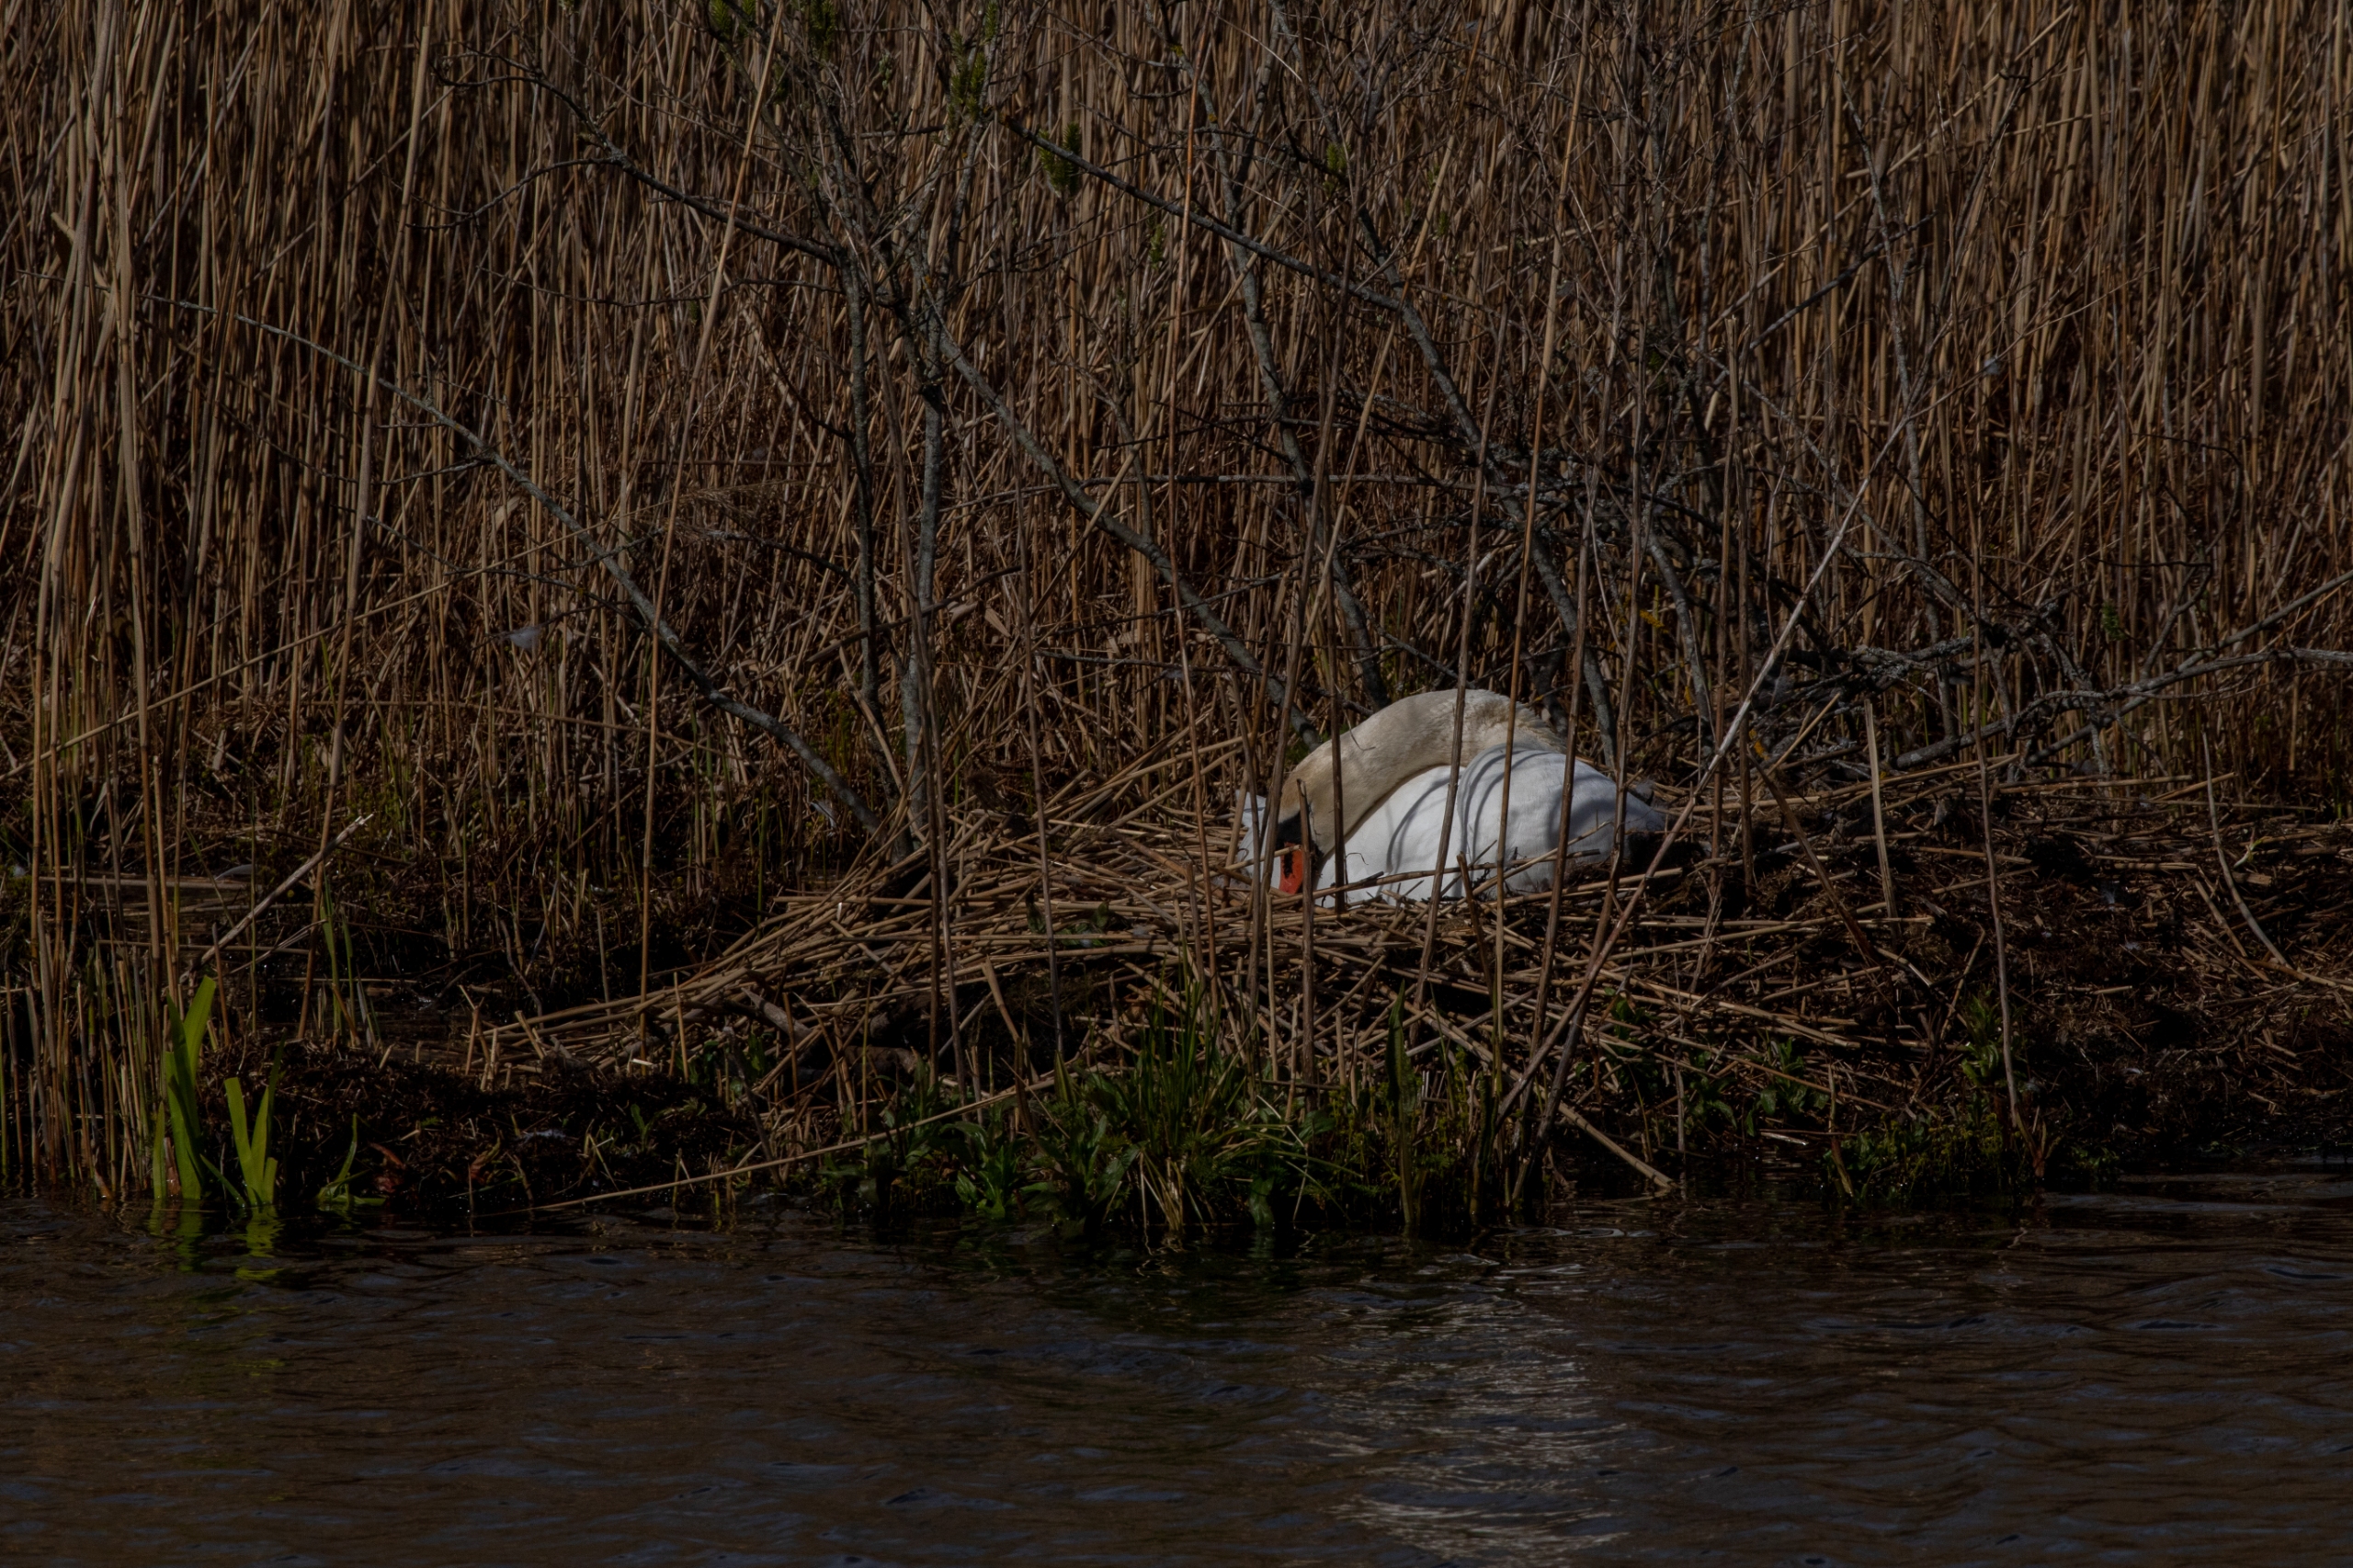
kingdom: Animalia
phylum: Chordata
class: Aves
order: Anseriformes
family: Anatidae
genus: Cygnus
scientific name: Cygnus olor
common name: Knopsvane
